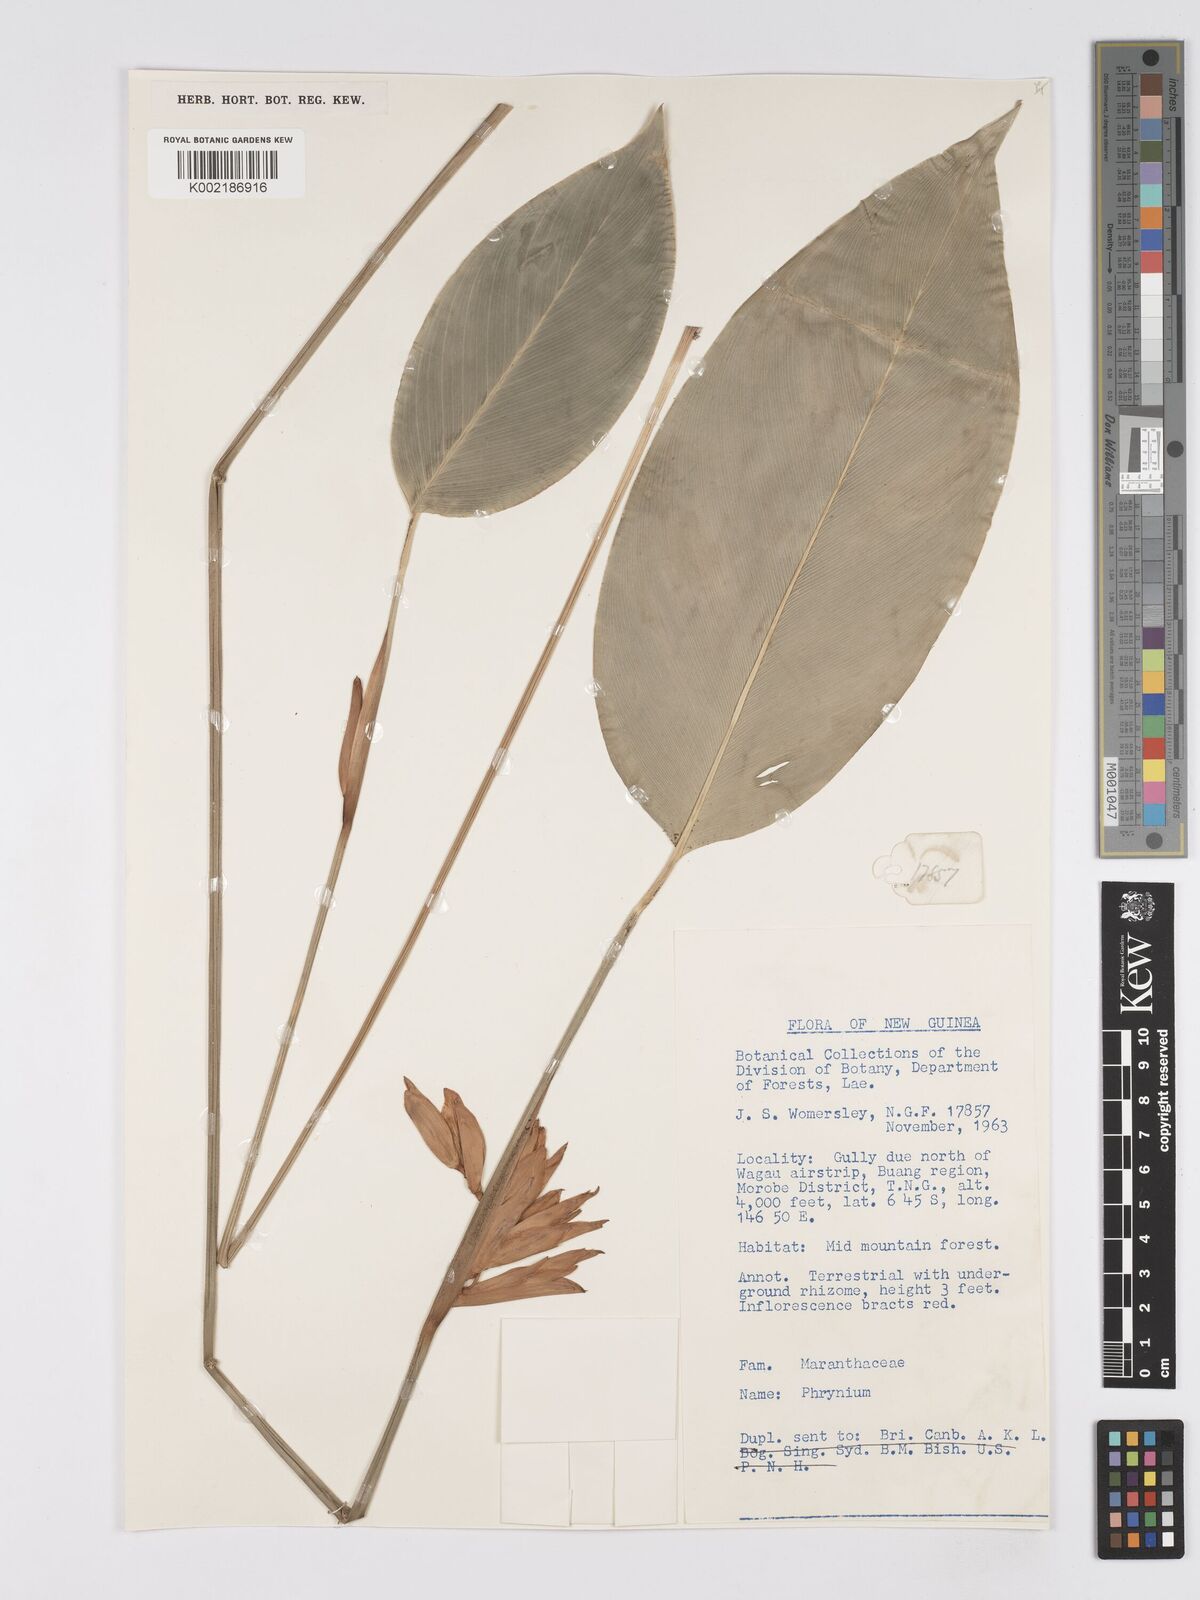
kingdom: Plantae
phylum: Tracheophyta
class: Liliopsida
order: Zingiberales
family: Marantaceae
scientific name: Marantaceae
